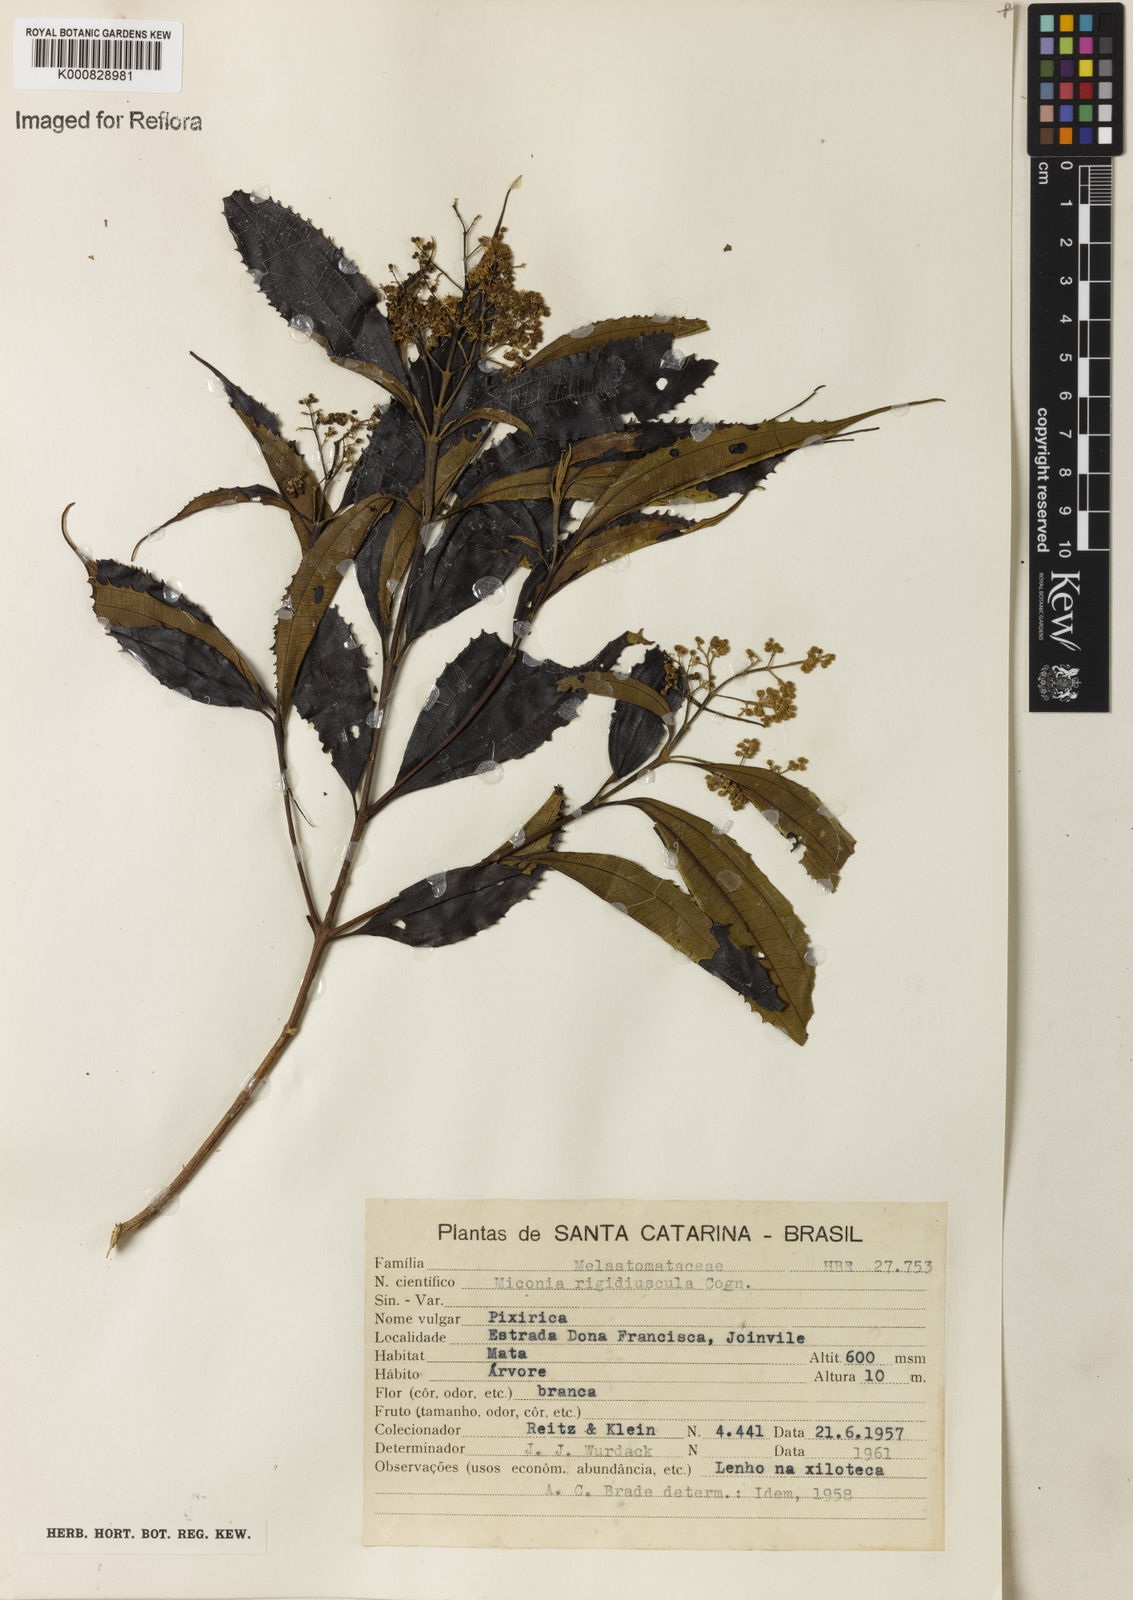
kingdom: Plantae
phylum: Tracheophyta
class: Magnoliopsida
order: Myrtales
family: Melastomataceae
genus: Miconia
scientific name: Miconia pusilliflora
